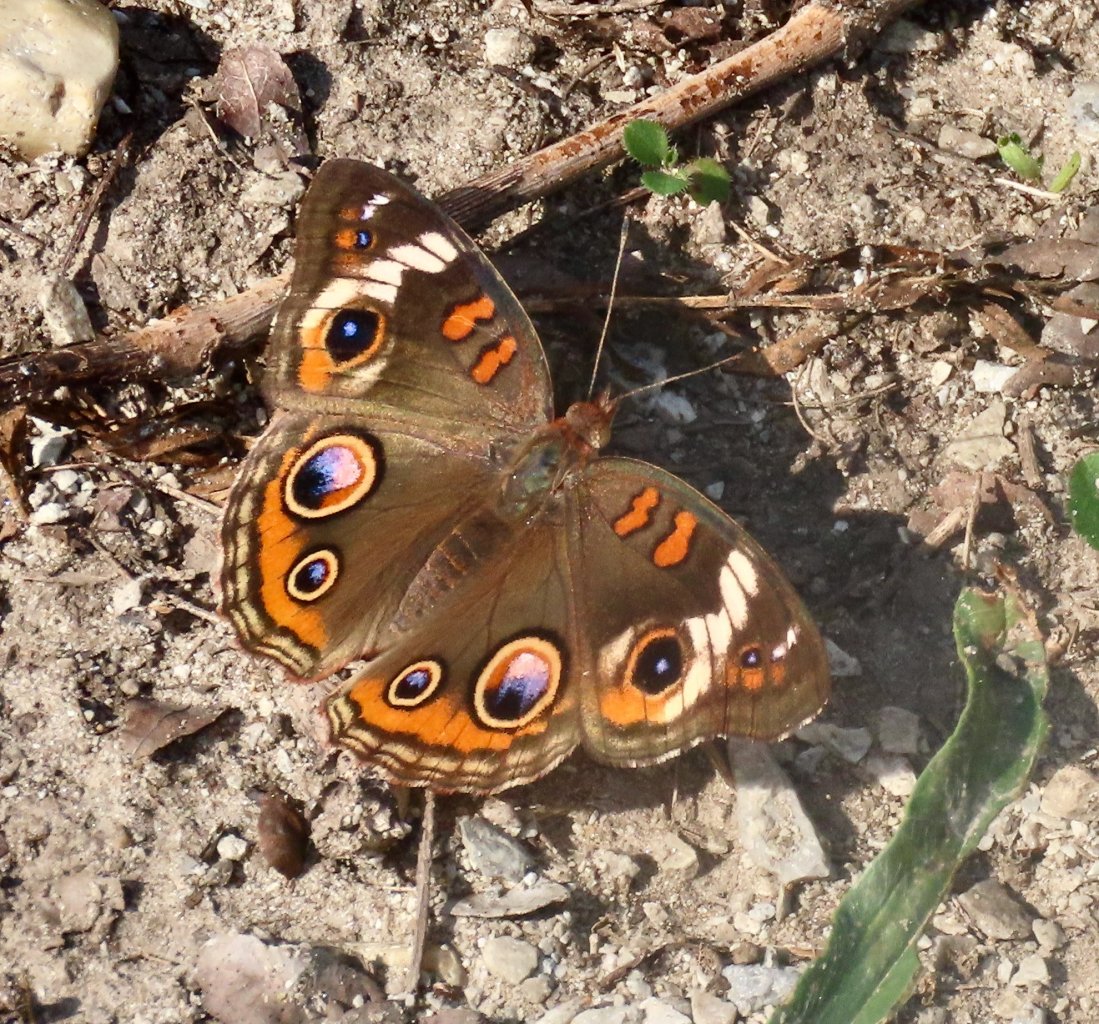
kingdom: Animalia
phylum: Arthropoda
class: Insecta
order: Lepidoptera
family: Nymphalidae
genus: Junonia
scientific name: Junonia coenia
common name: Common Buckeye
